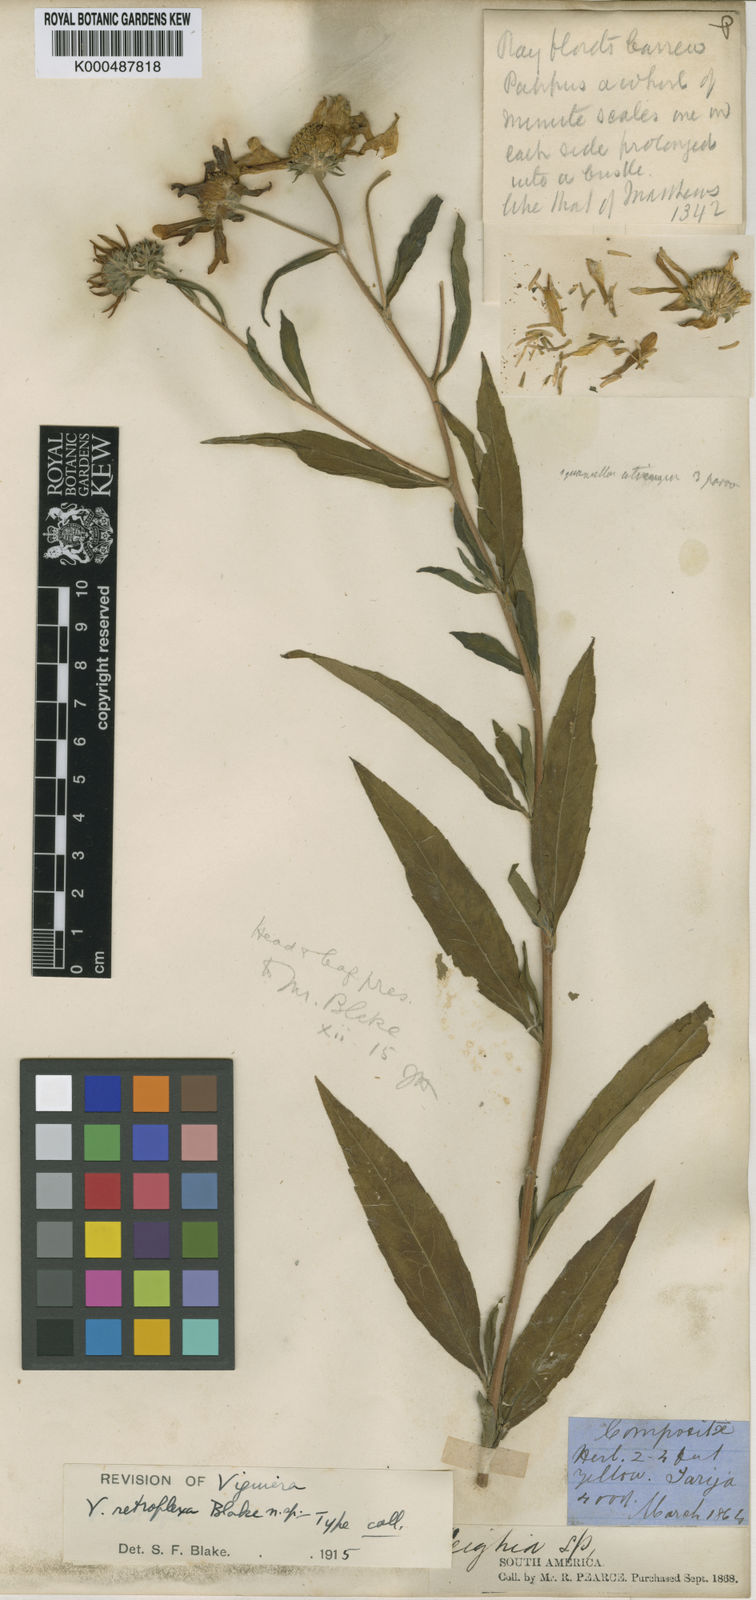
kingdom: Plantae
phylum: Tracheophyta
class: Magnoliopsida
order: Asterales
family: Asteraceae
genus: Aldama
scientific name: Aldama retroflexa
